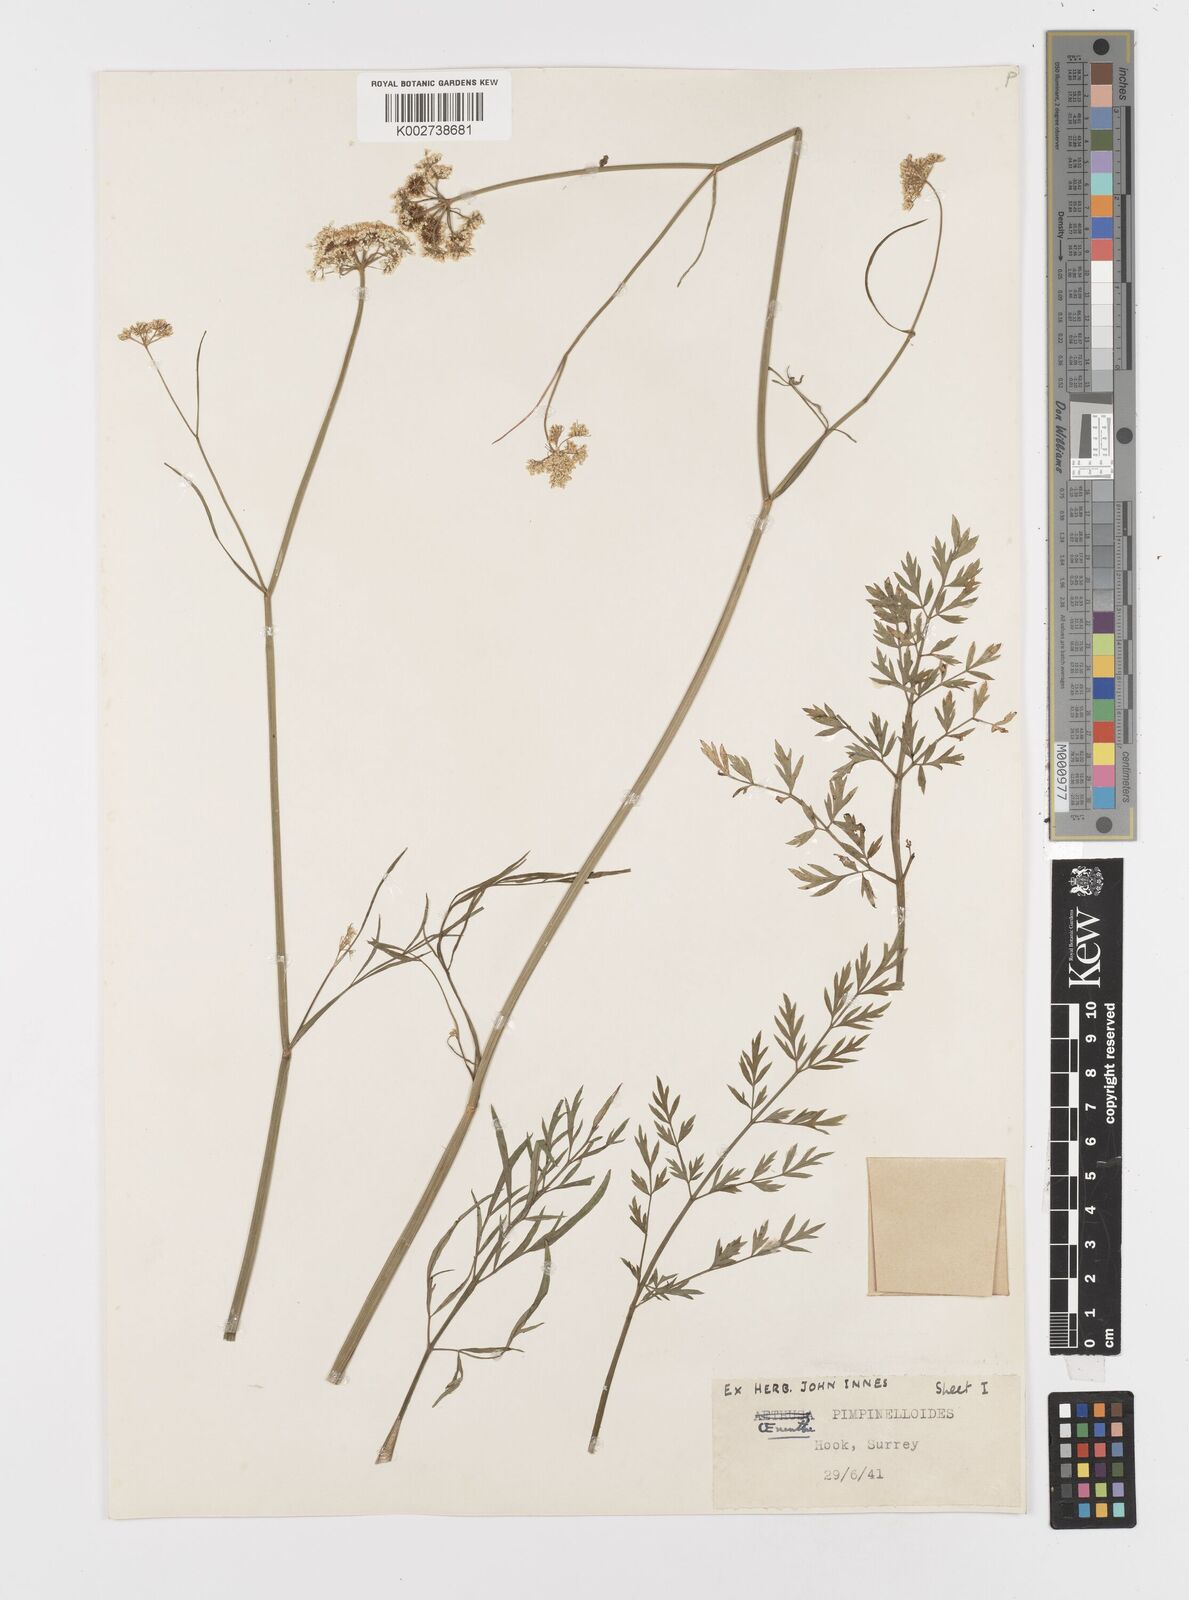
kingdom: Plantae
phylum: Tracheophyta
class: Magnoliopsida
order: Apiales
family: Apiaceae
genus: Oenanthe
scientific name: Oenanthe pimpinelloides
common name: Corky-fruited water-dropwort
